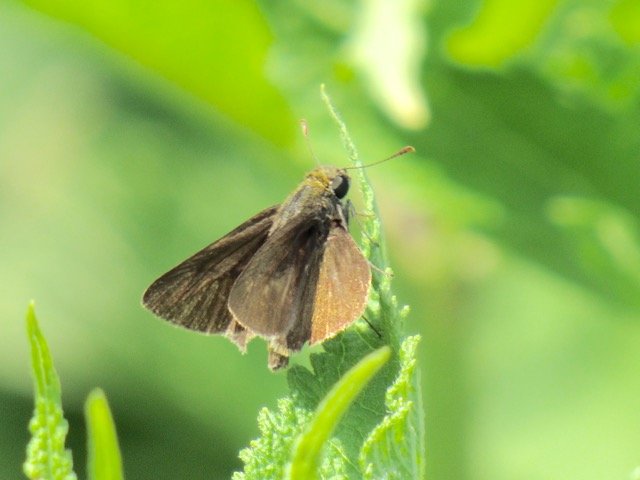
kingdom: Animalia
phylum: Arthropoda
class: Insecta
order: Lepidoptera
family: Hesperiidae
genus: Polites
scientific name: Polites egeremet
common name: Northern Broken-Dash
